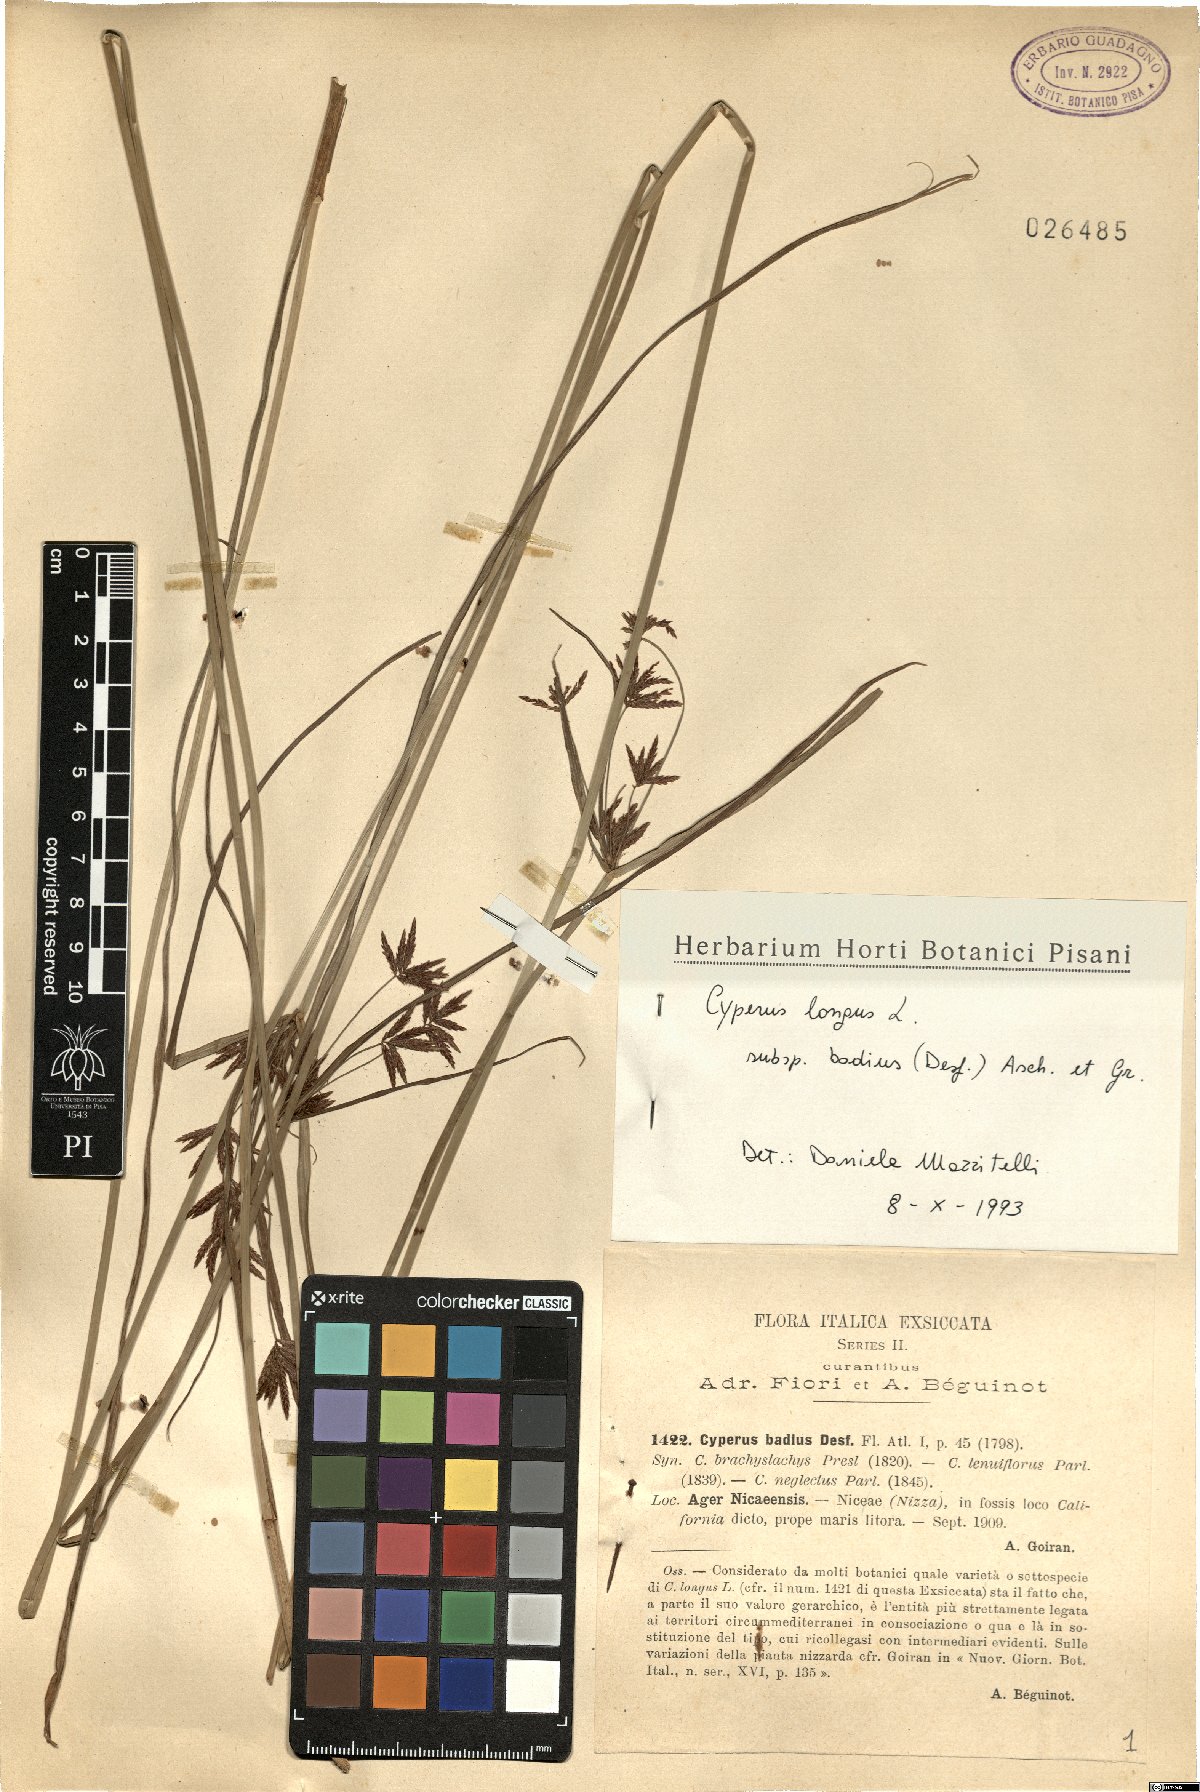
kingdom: Plantae
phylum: Tracheophyta
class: Liliopsida
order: Poales
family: Cyperaceae
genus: Cyperus
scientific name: Cyperus longus
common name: Galingale
